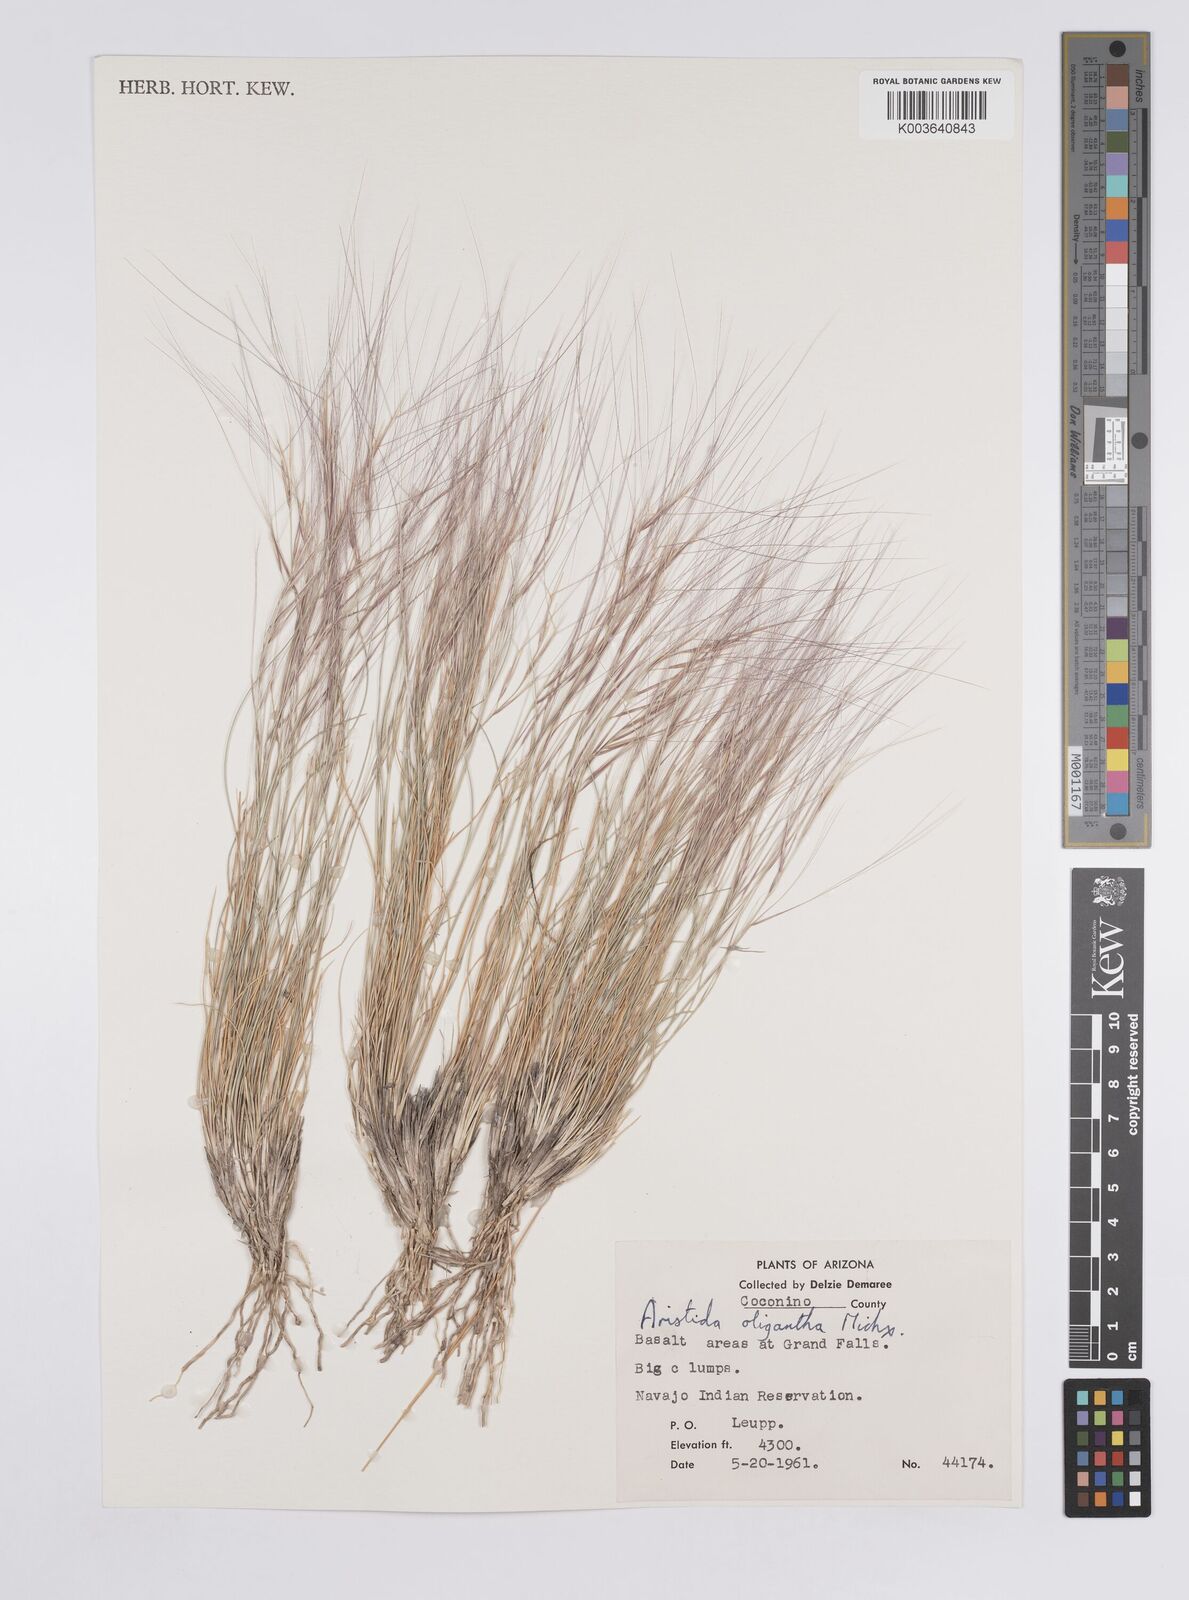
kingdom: Plantae
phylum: Tracheophyta
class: Liliopsida
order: Poales
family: Poaceae
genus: Aristida
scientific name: Aristida purpurea
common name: Purple threeawn
